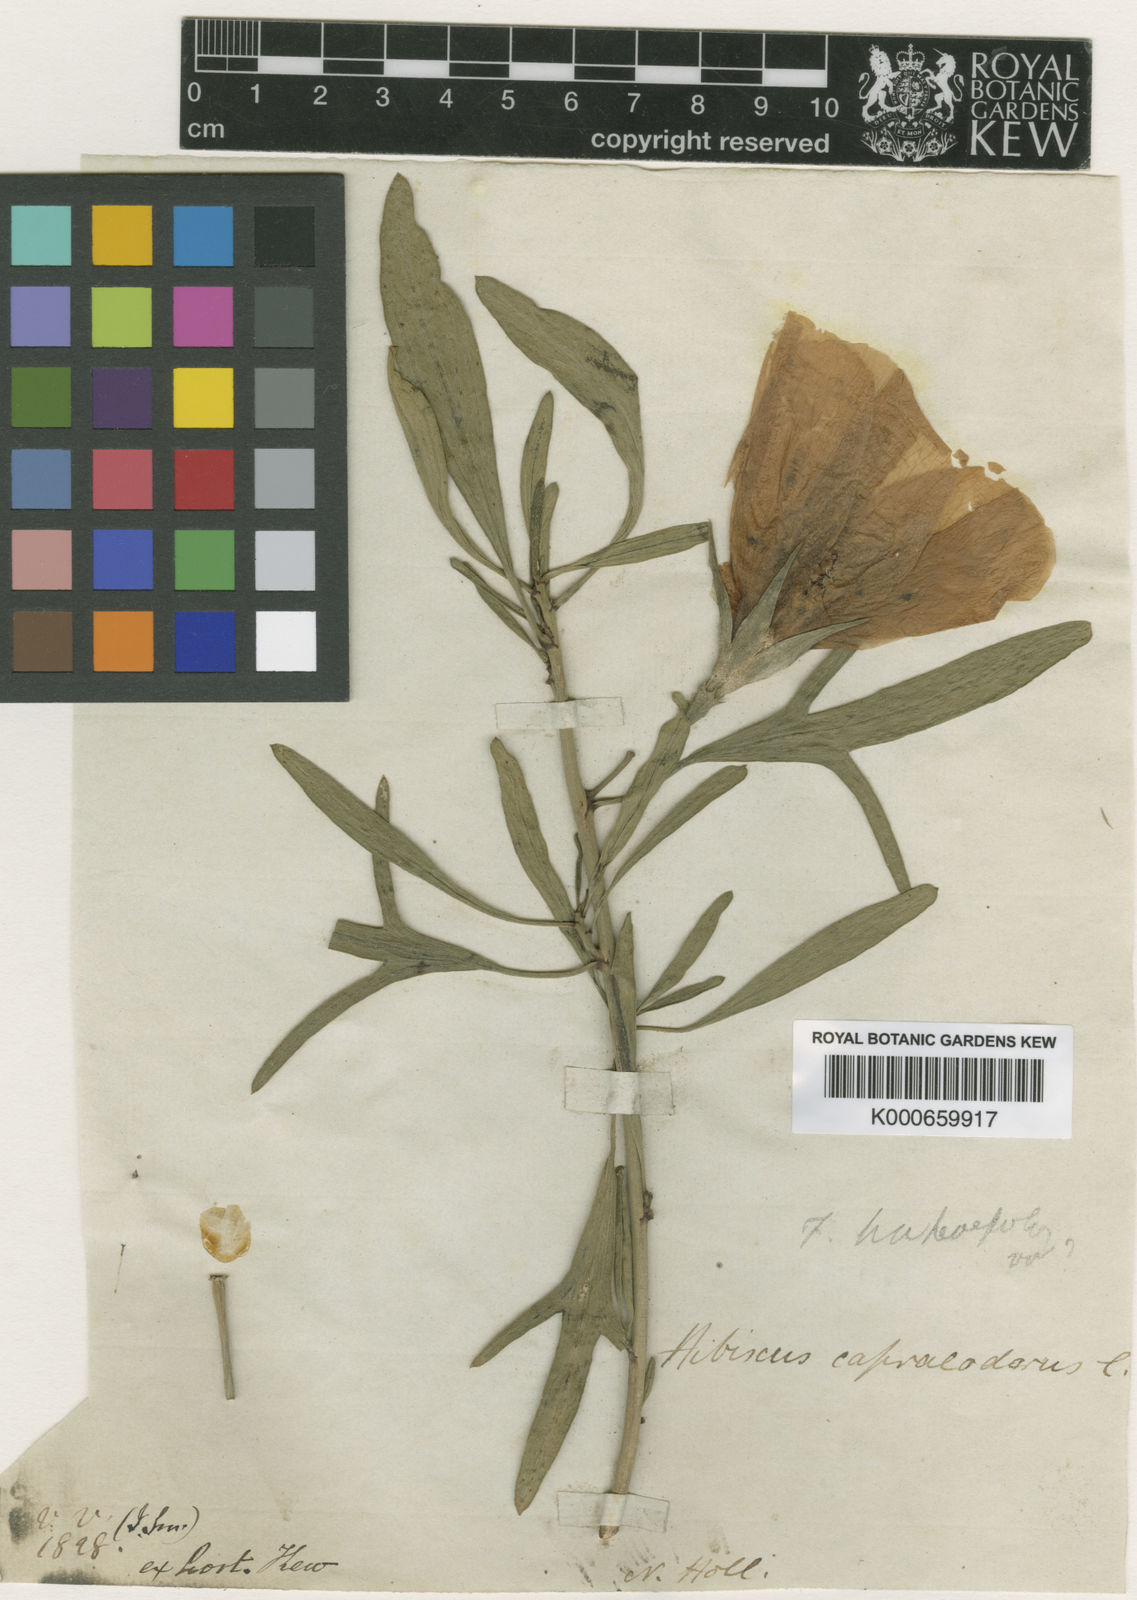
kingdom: Plantae
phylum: Tracheophyta
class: Magnoliopsida
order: Malvales
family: Malvaceae
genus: Hibiscus
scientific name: Hibiscus hakeifolius
